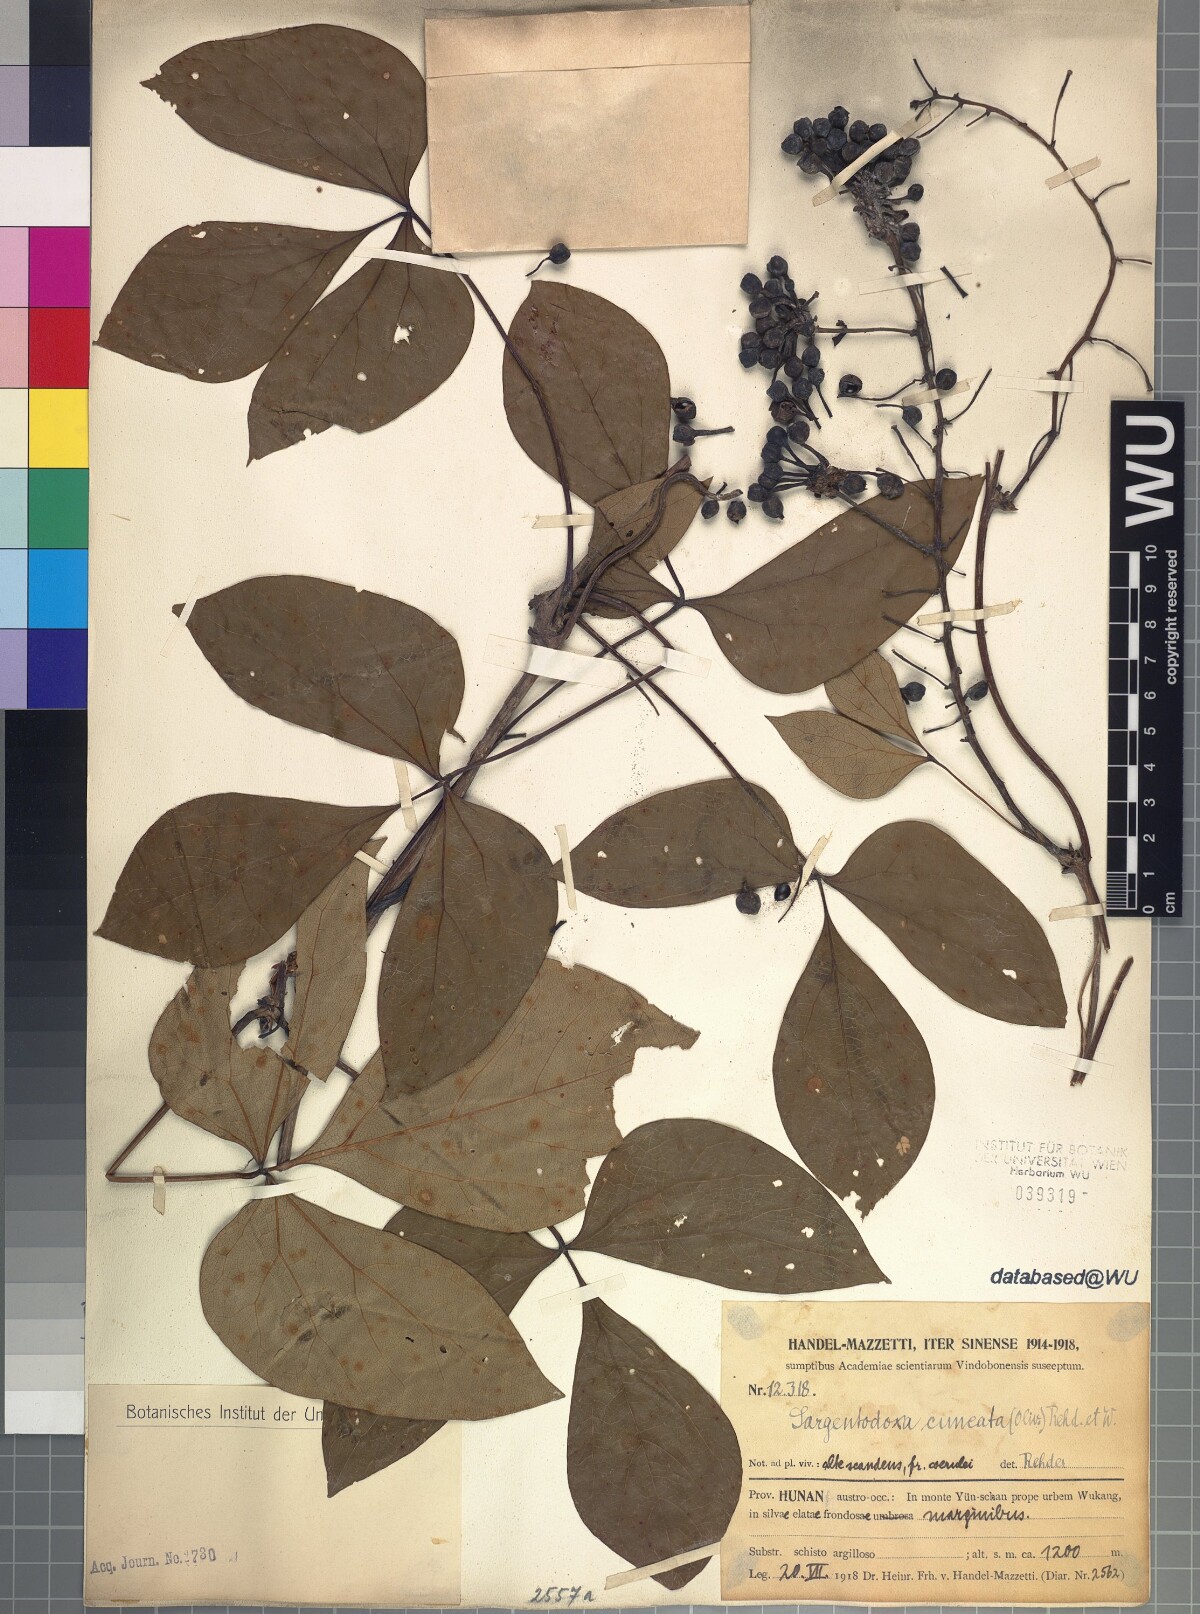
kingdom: Plantae
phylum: Tracheophyta
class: Magnoliopsida
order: Ranunculales
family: Lardizabalaceae
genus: Sargentodoxa
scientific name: Sargentodoxa cuneata
